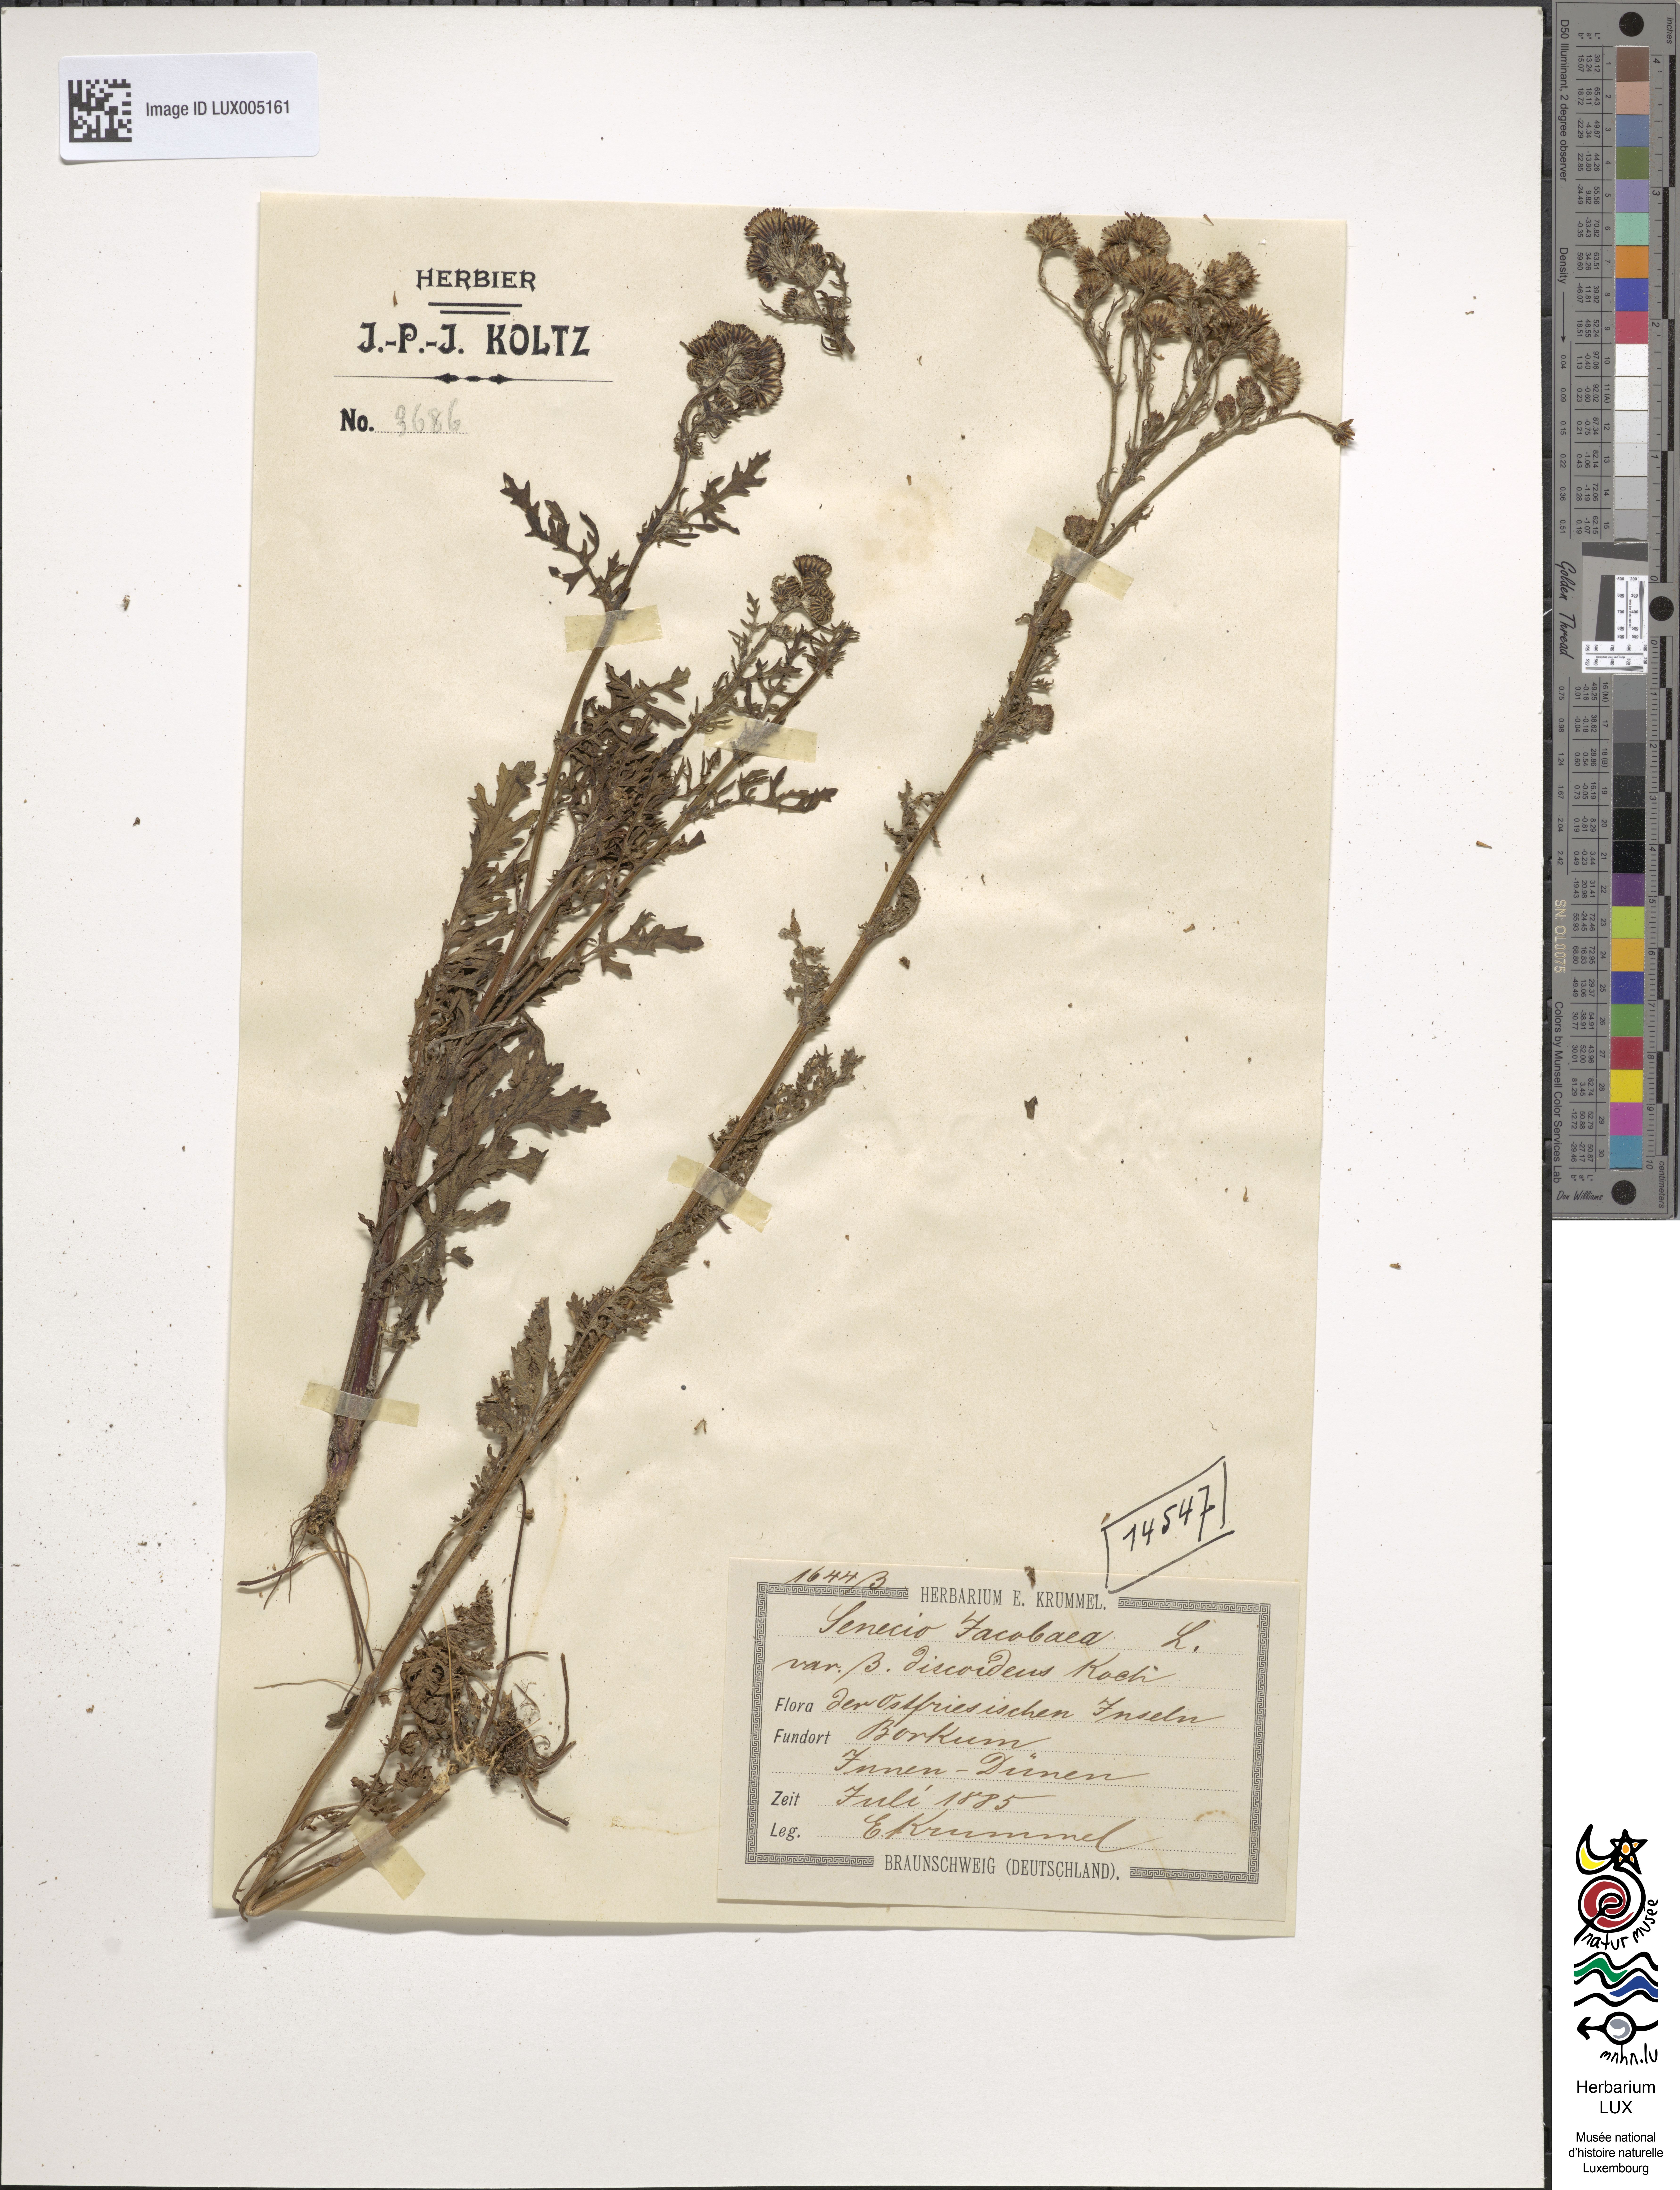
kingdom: Plantae
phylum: Tracheophyta
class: Magnoliopsida
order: Asterales
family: Asteraceae
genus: Jacobaea
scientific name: Jacobaea vulgaris
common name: Stinking willie
